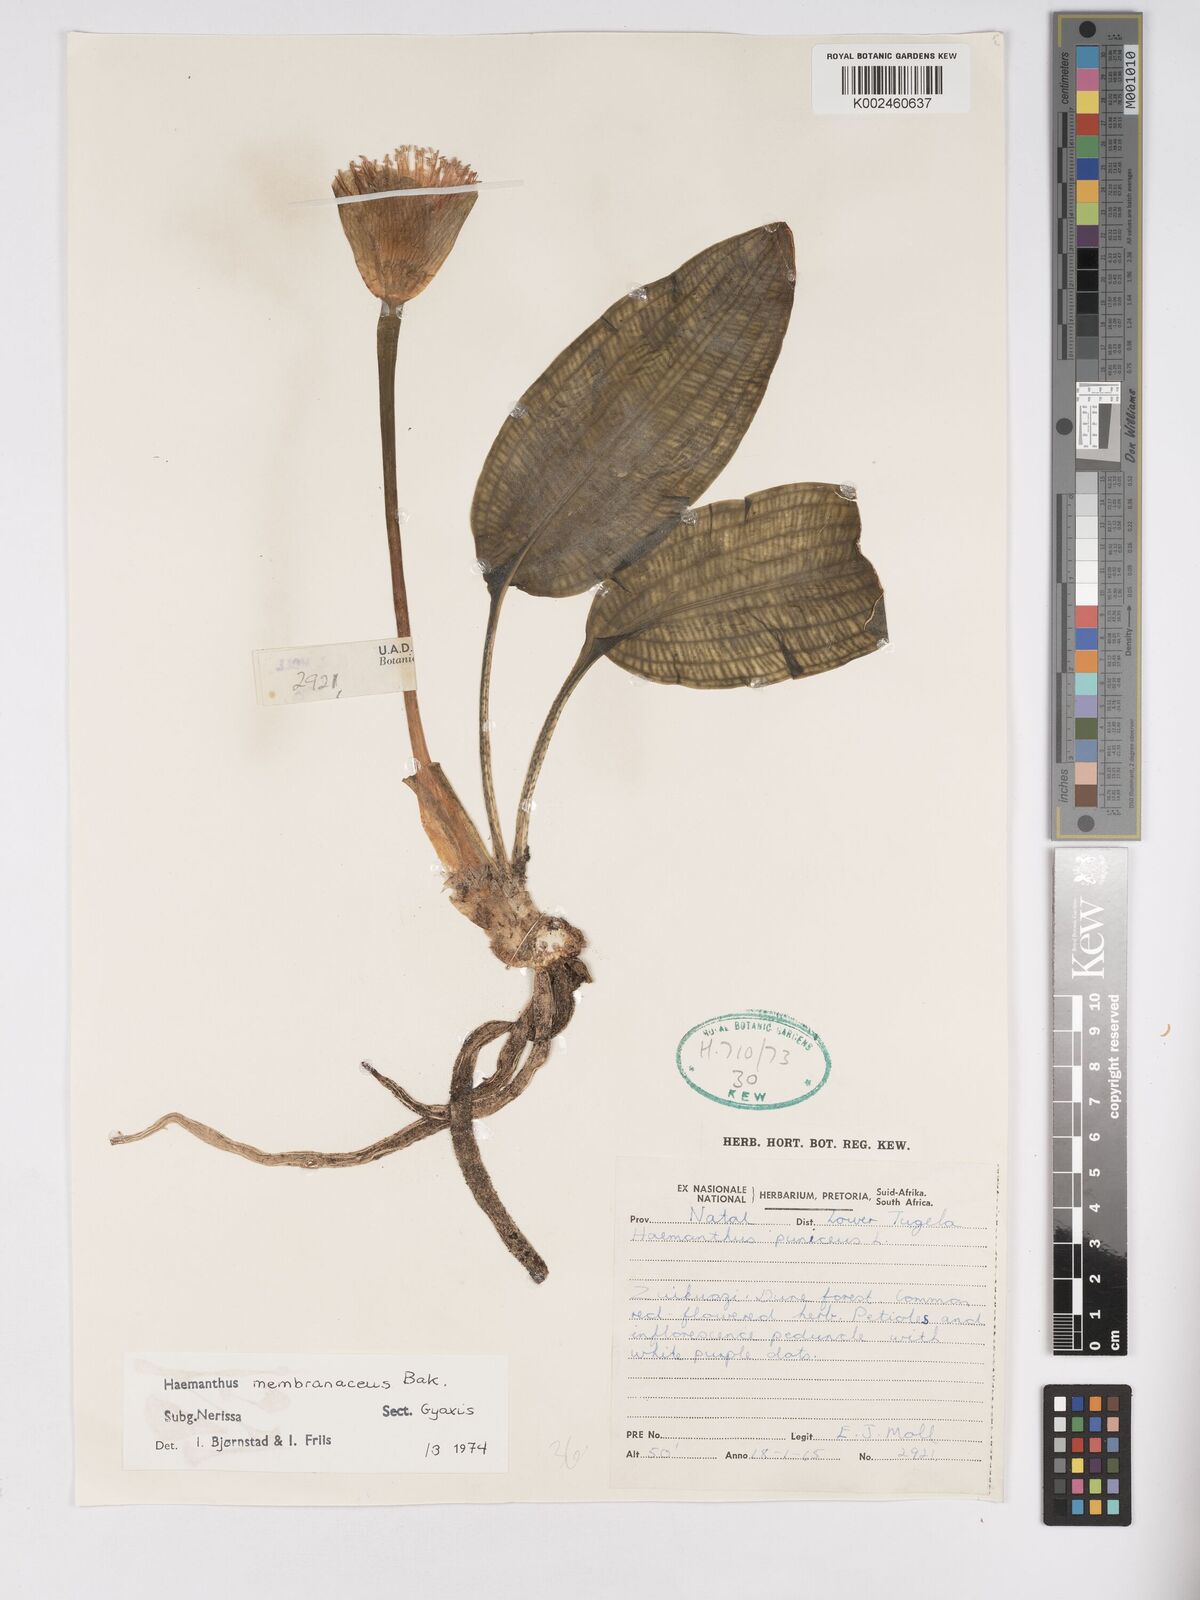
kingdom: Plantae
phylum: Tracheophyta
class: Liliopsida
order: Asparagales
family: Amaryllidaceae
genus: Scadoxus
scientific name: Scadoxus membranaceus
